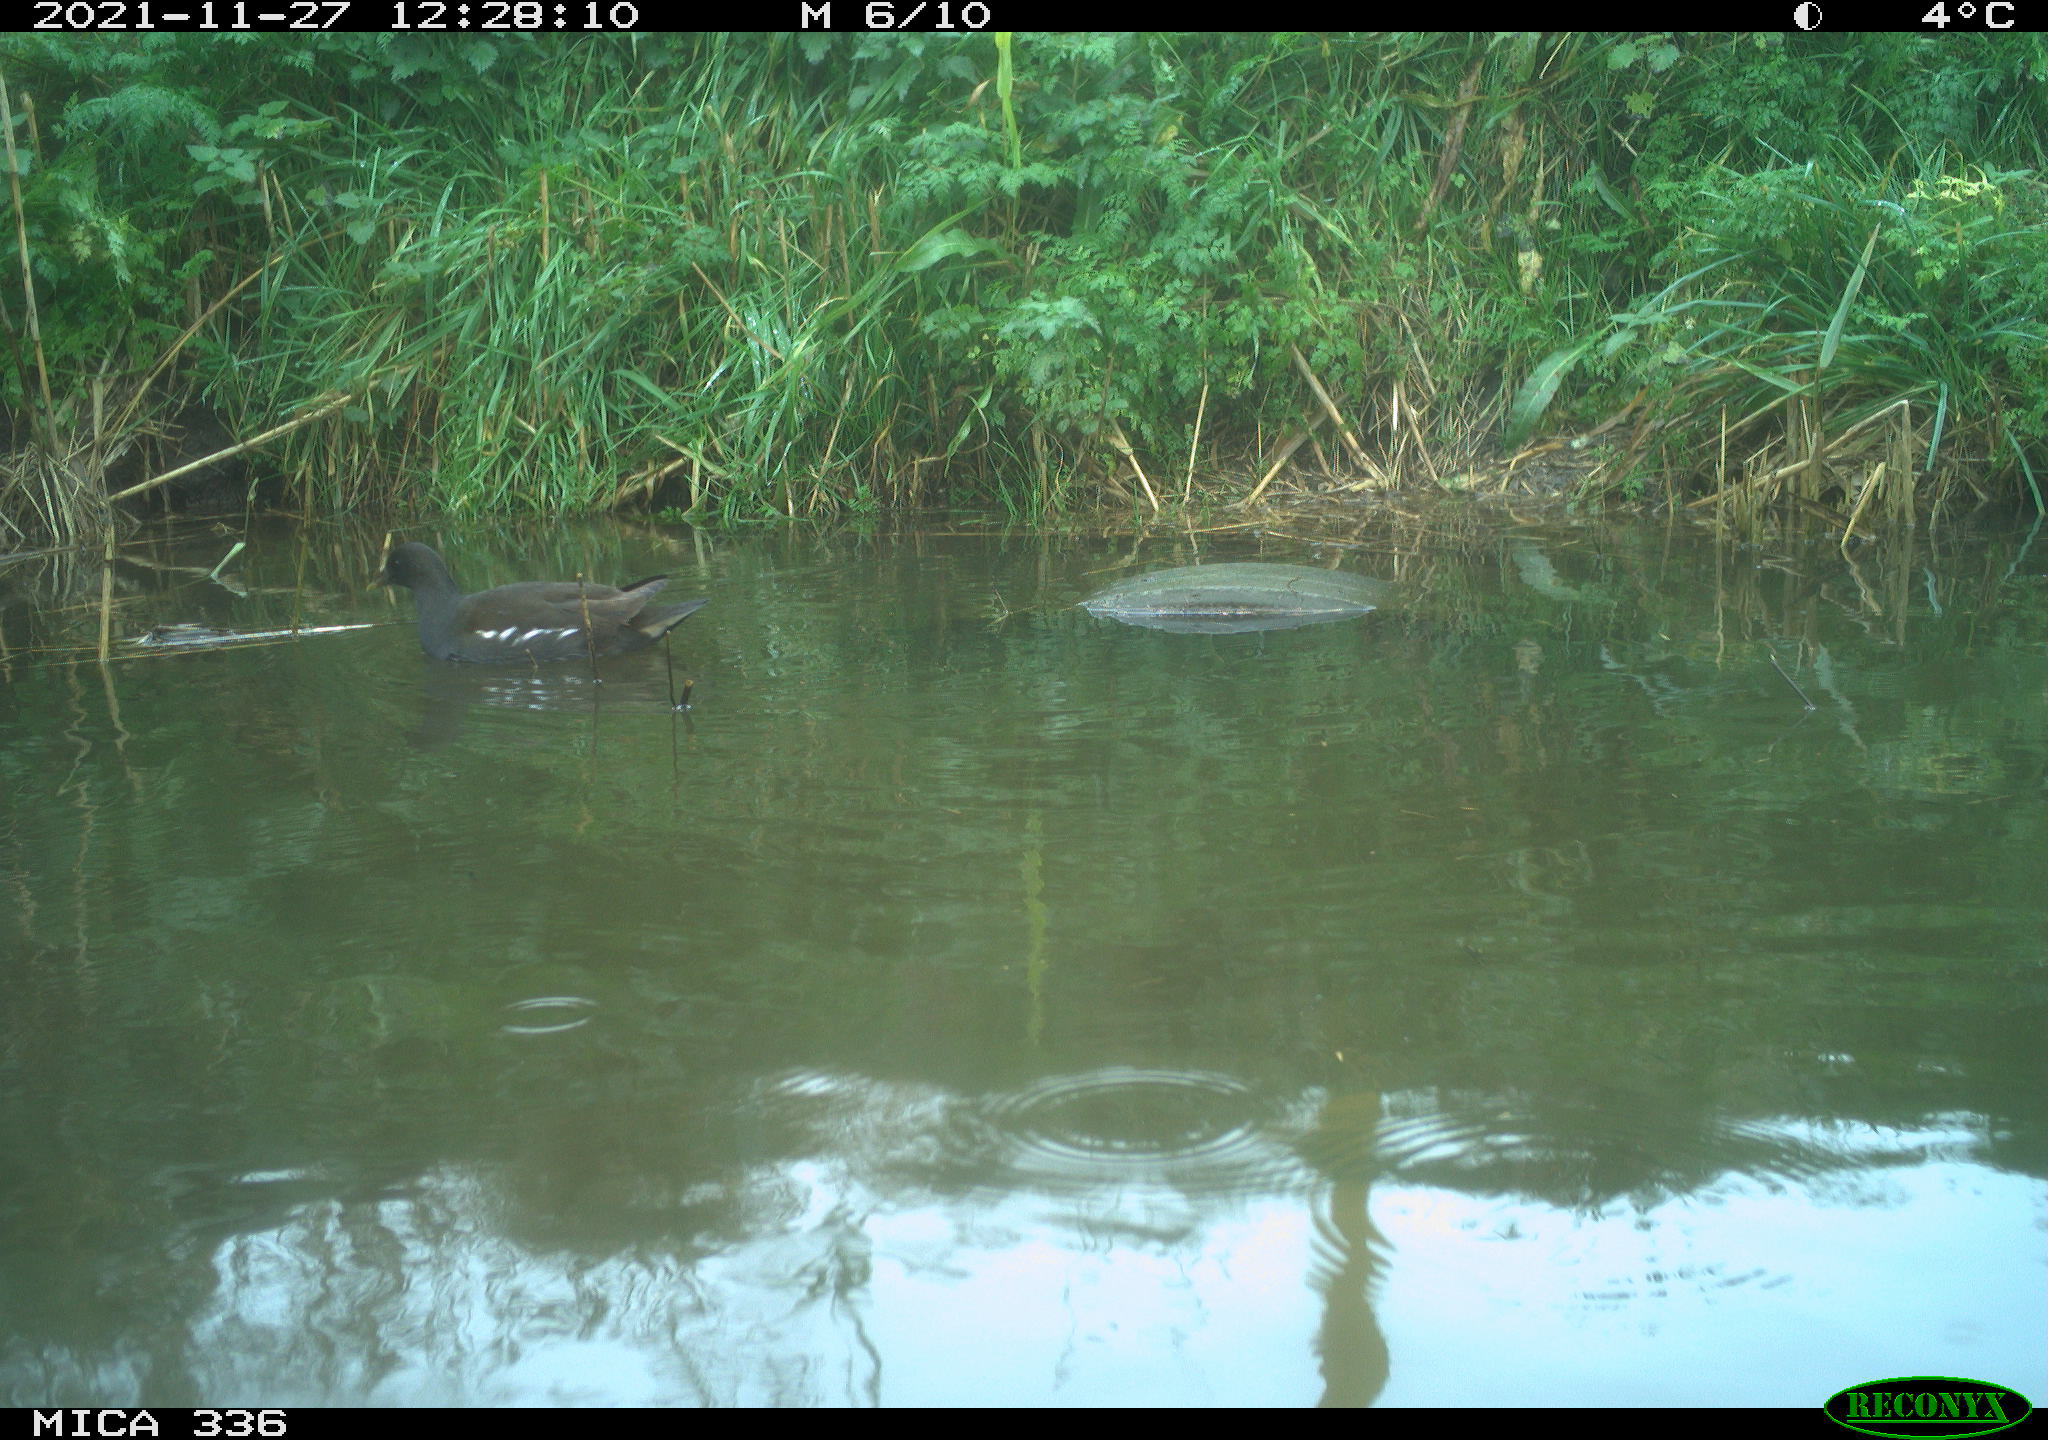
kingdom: Animalia
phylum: Chordata
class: Aves
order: Gruiformes
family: Rallidae
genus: Gallinula
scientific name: Gallinula chloropus
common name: Common moorhen
